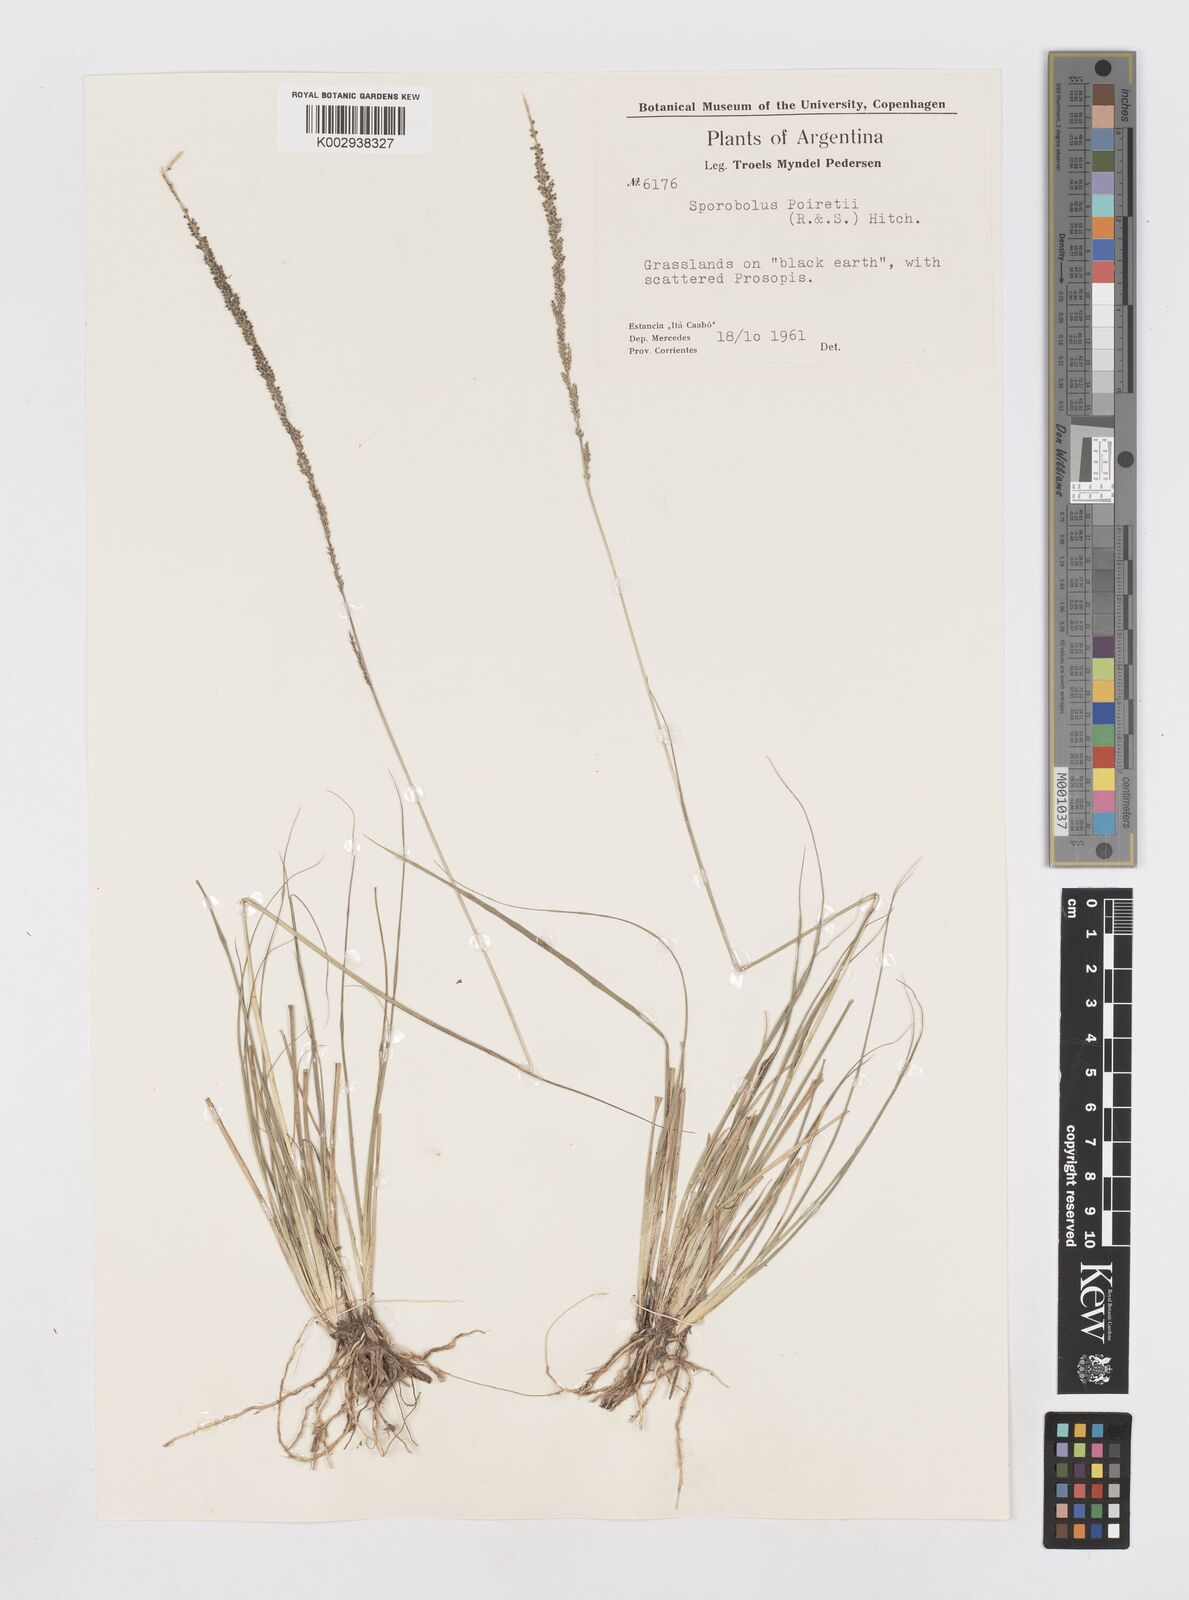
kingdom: Plantae
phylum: Tracheophyta
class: Liliopsida
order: Poales
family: Poaceae
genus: Sporobolus
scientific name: Sporobolus minor
